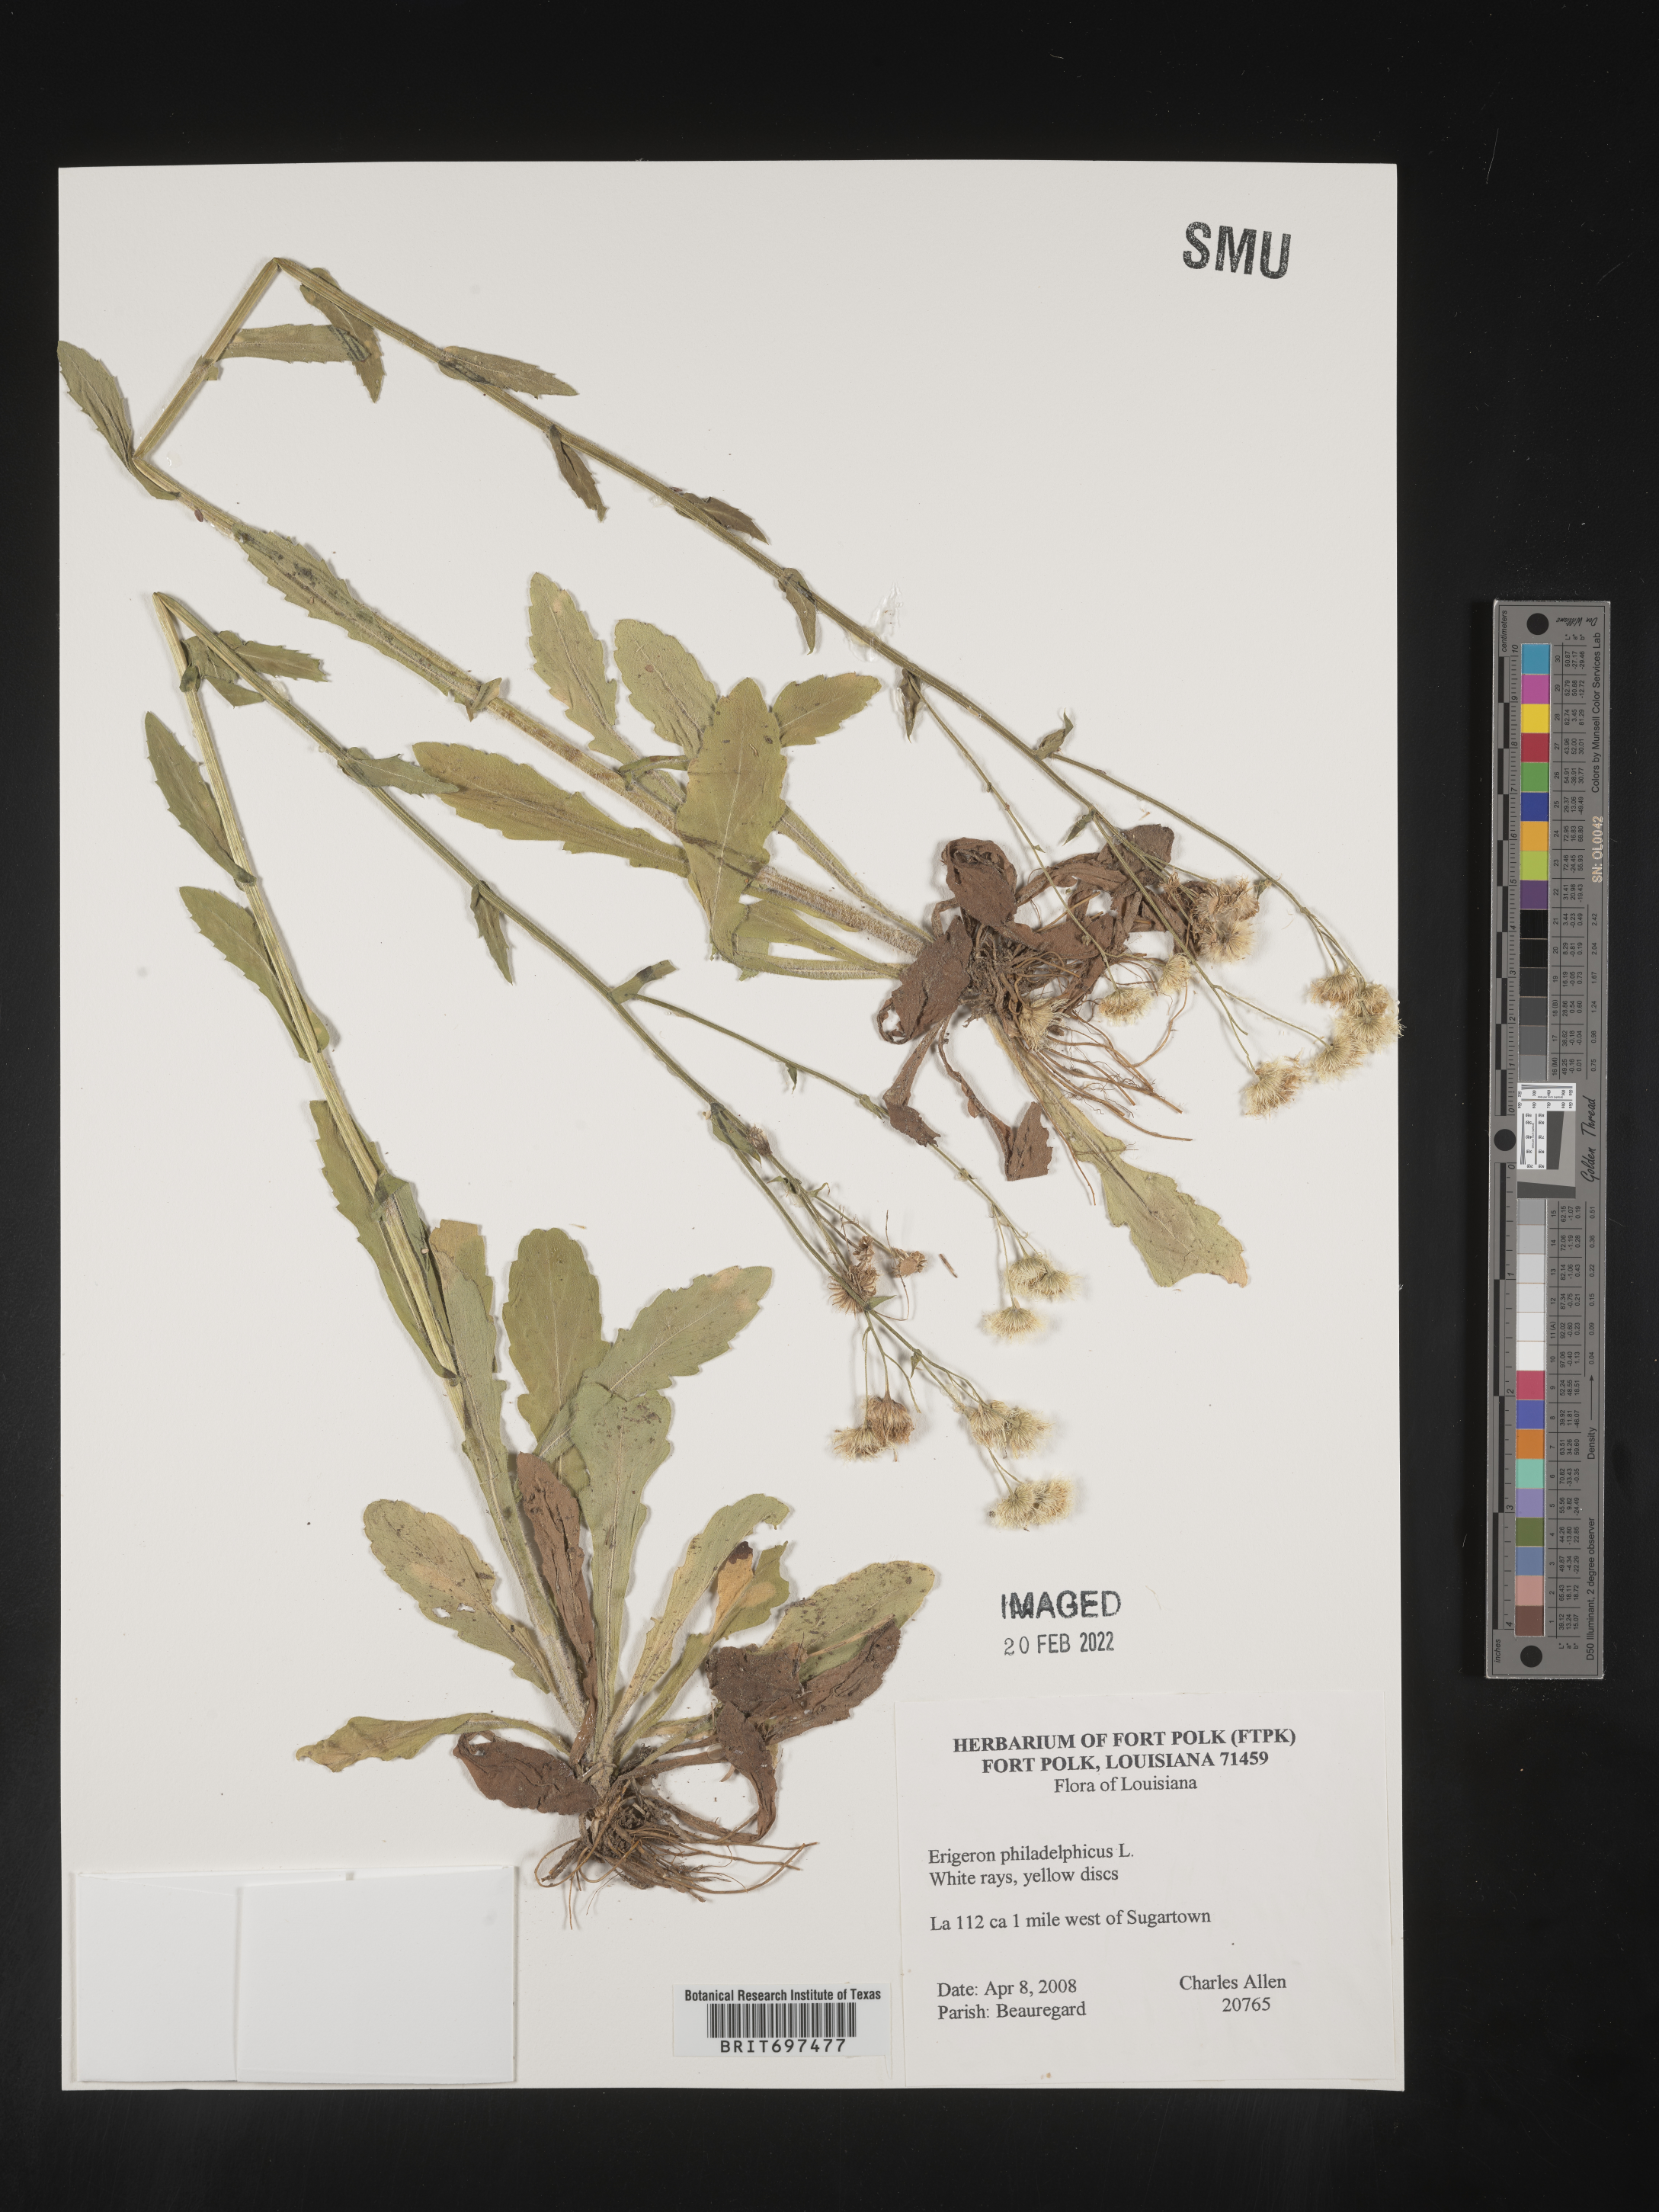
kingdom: Plantae
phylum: Tracheophyta
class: Magnoliopsida
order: Asterales
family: Asteraceae
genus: Erigeron
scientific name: Erigeron philadelphicus
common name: Robin's-plantain
